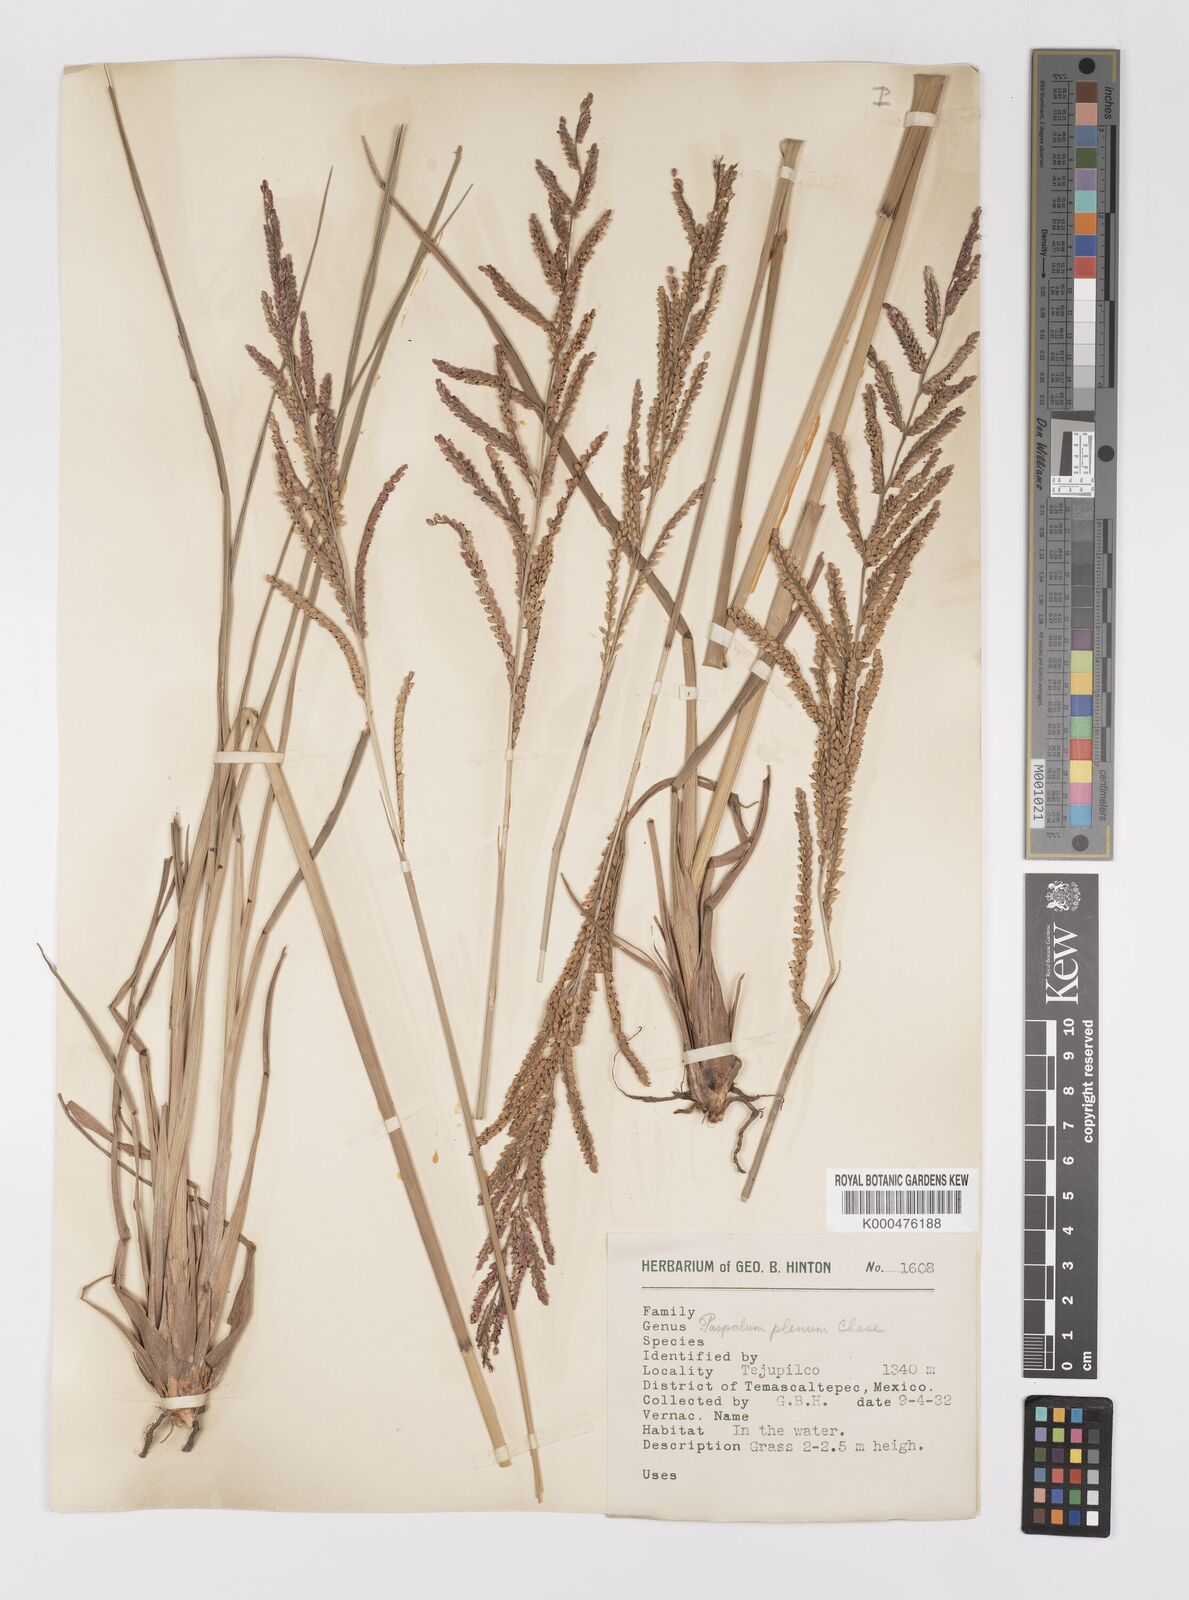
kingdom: Plantae
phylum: Tracheophyta
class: Liliopsida
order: Poales
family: Poaceae
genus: Paspalum
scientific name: Paspalum plenum
